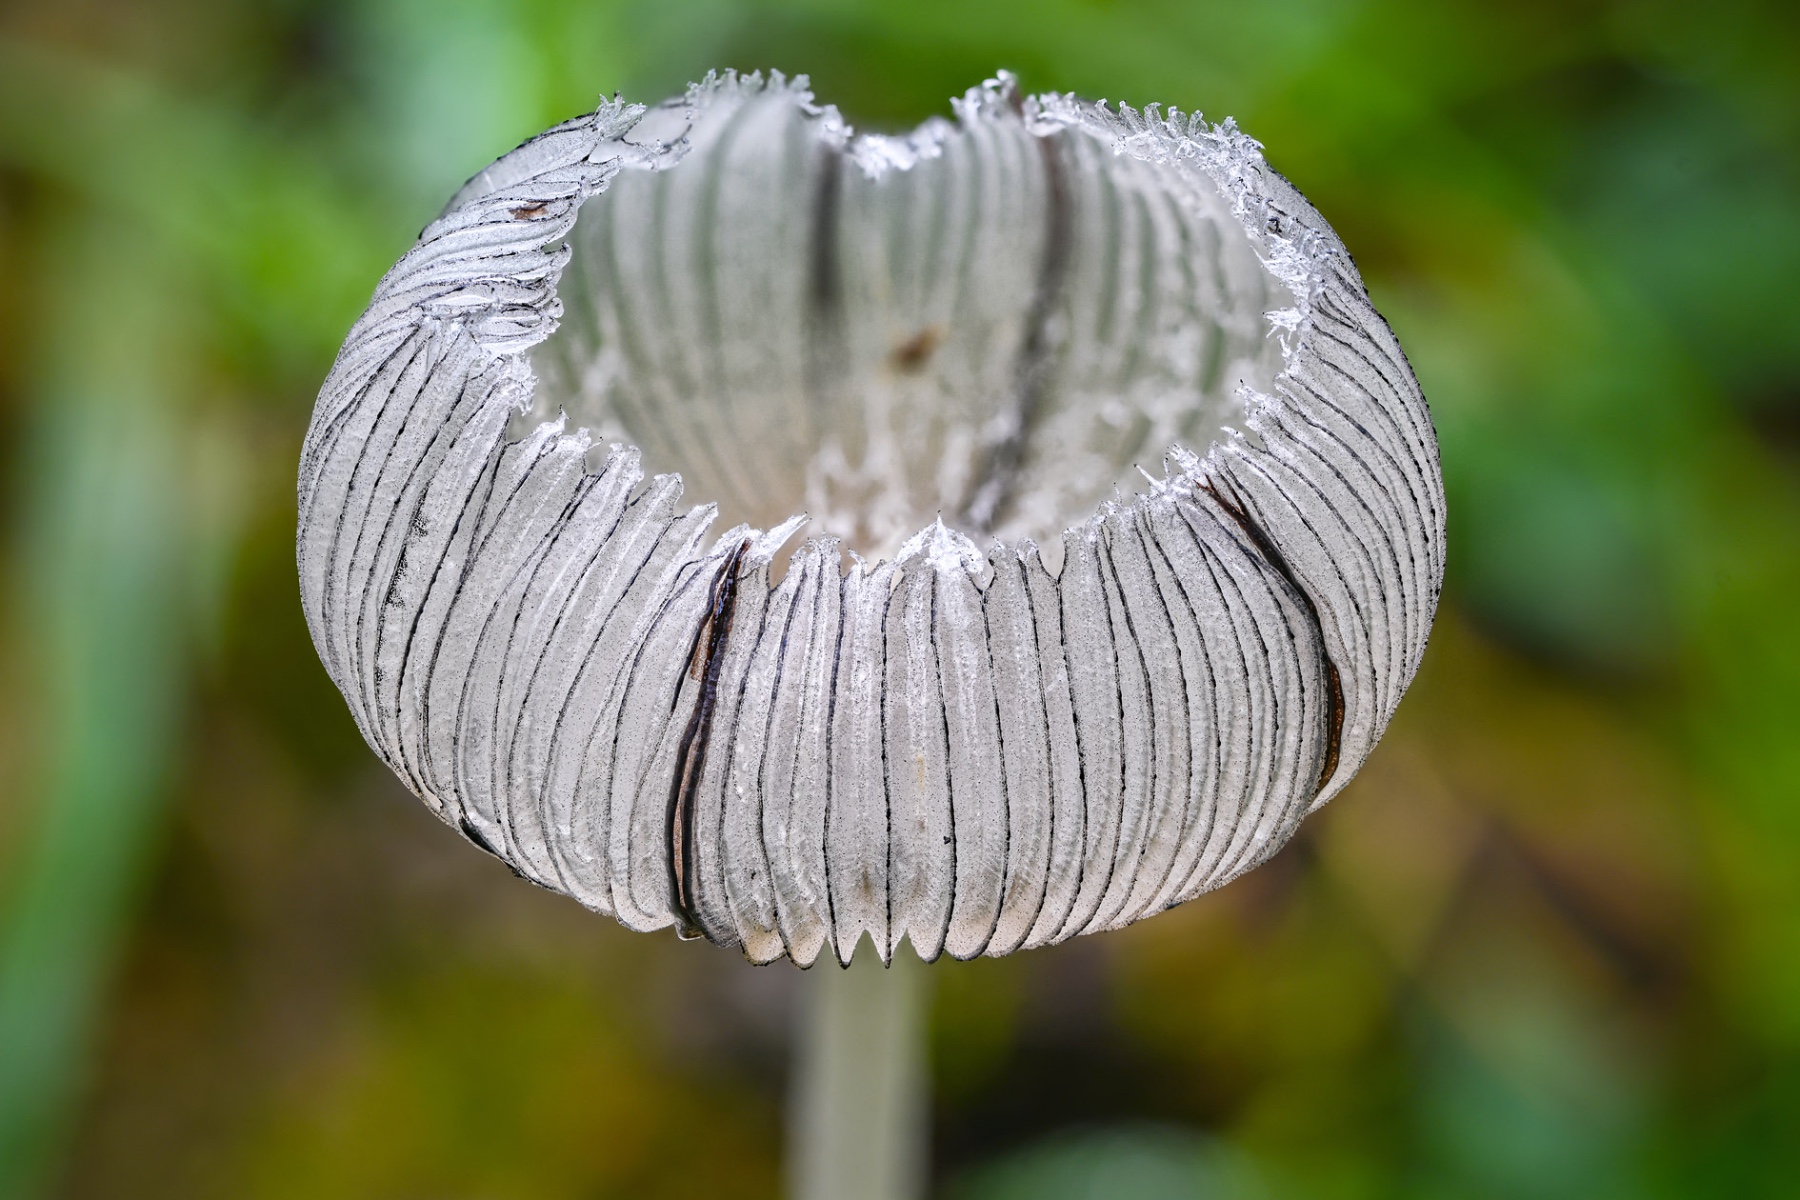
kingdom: Fungi
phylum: Basidiomycota
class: Agaricomycetes
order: Agaricales
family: Psathyrellaceae
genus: Coprinopsis
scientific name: Coprinopsis lagopus
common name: dunstokket blækhat
